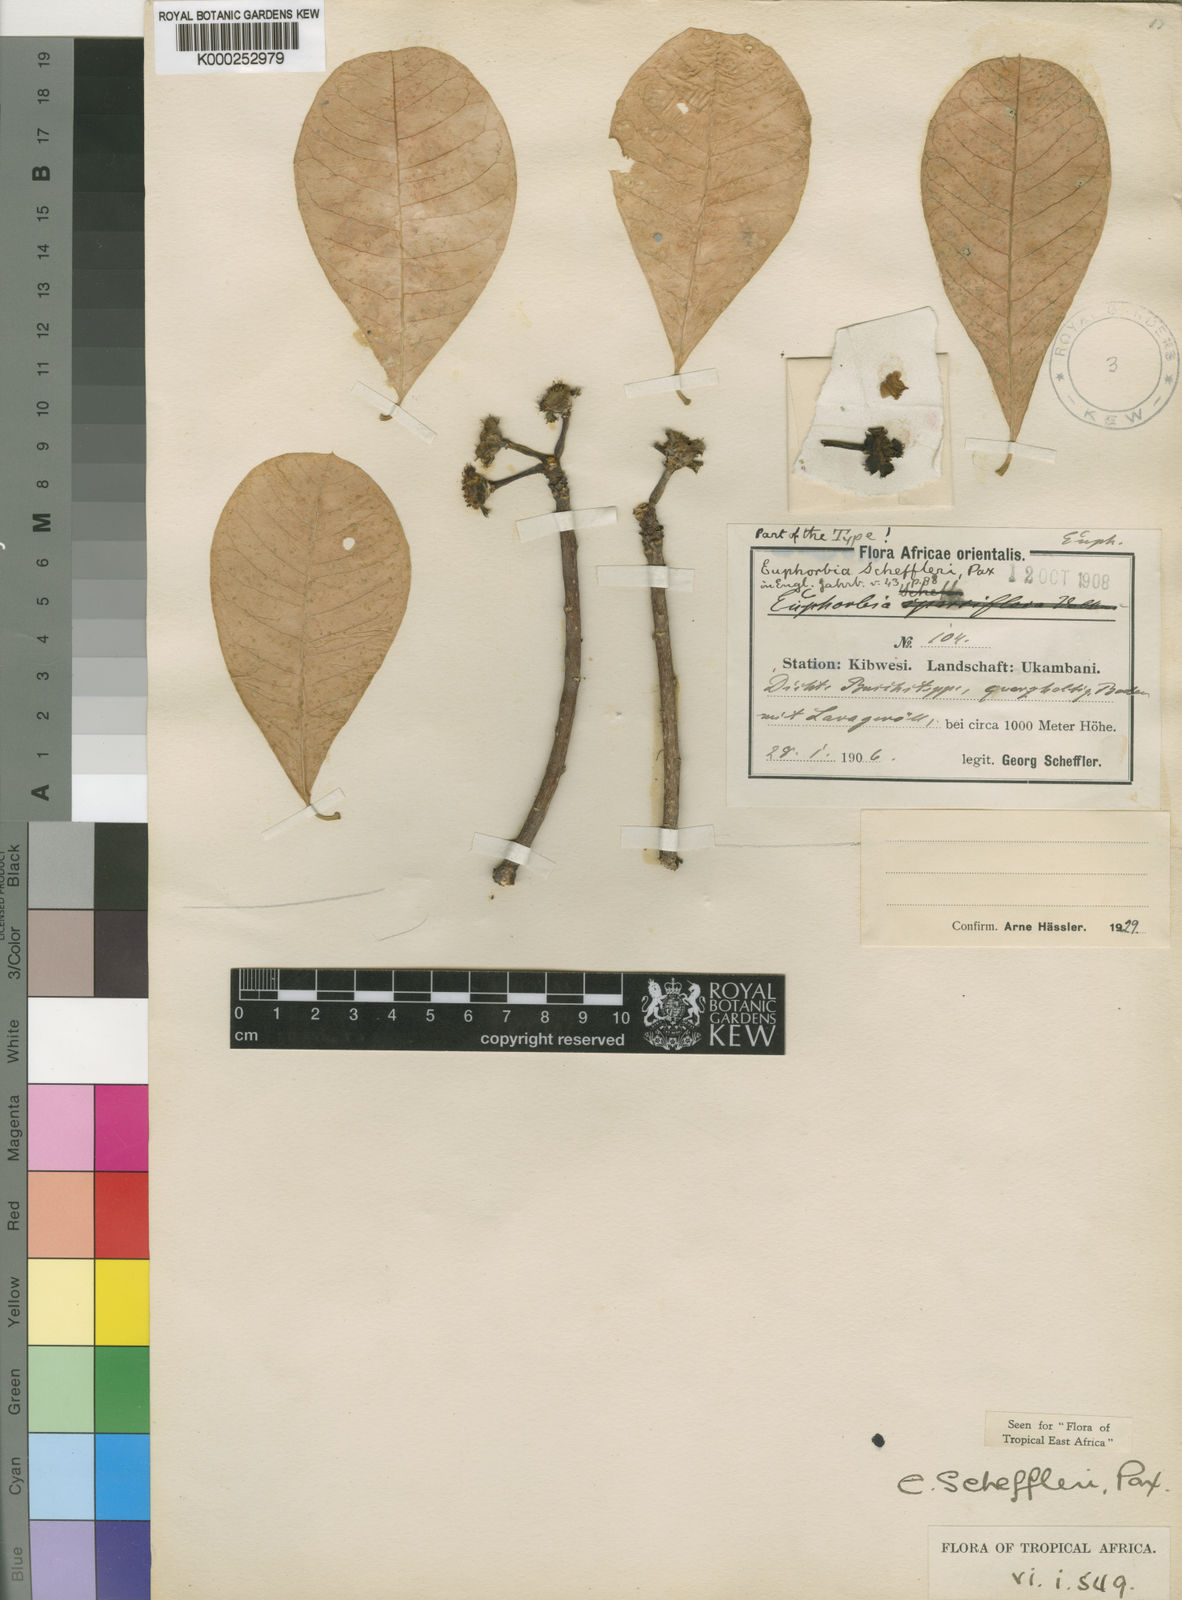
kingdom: Plantae
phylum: Tracheophyta
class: Magnoliopsida
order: Malpighiales
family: Euphorbiaceae
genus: Euphorbia
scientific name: Euphorbia scheffleri
